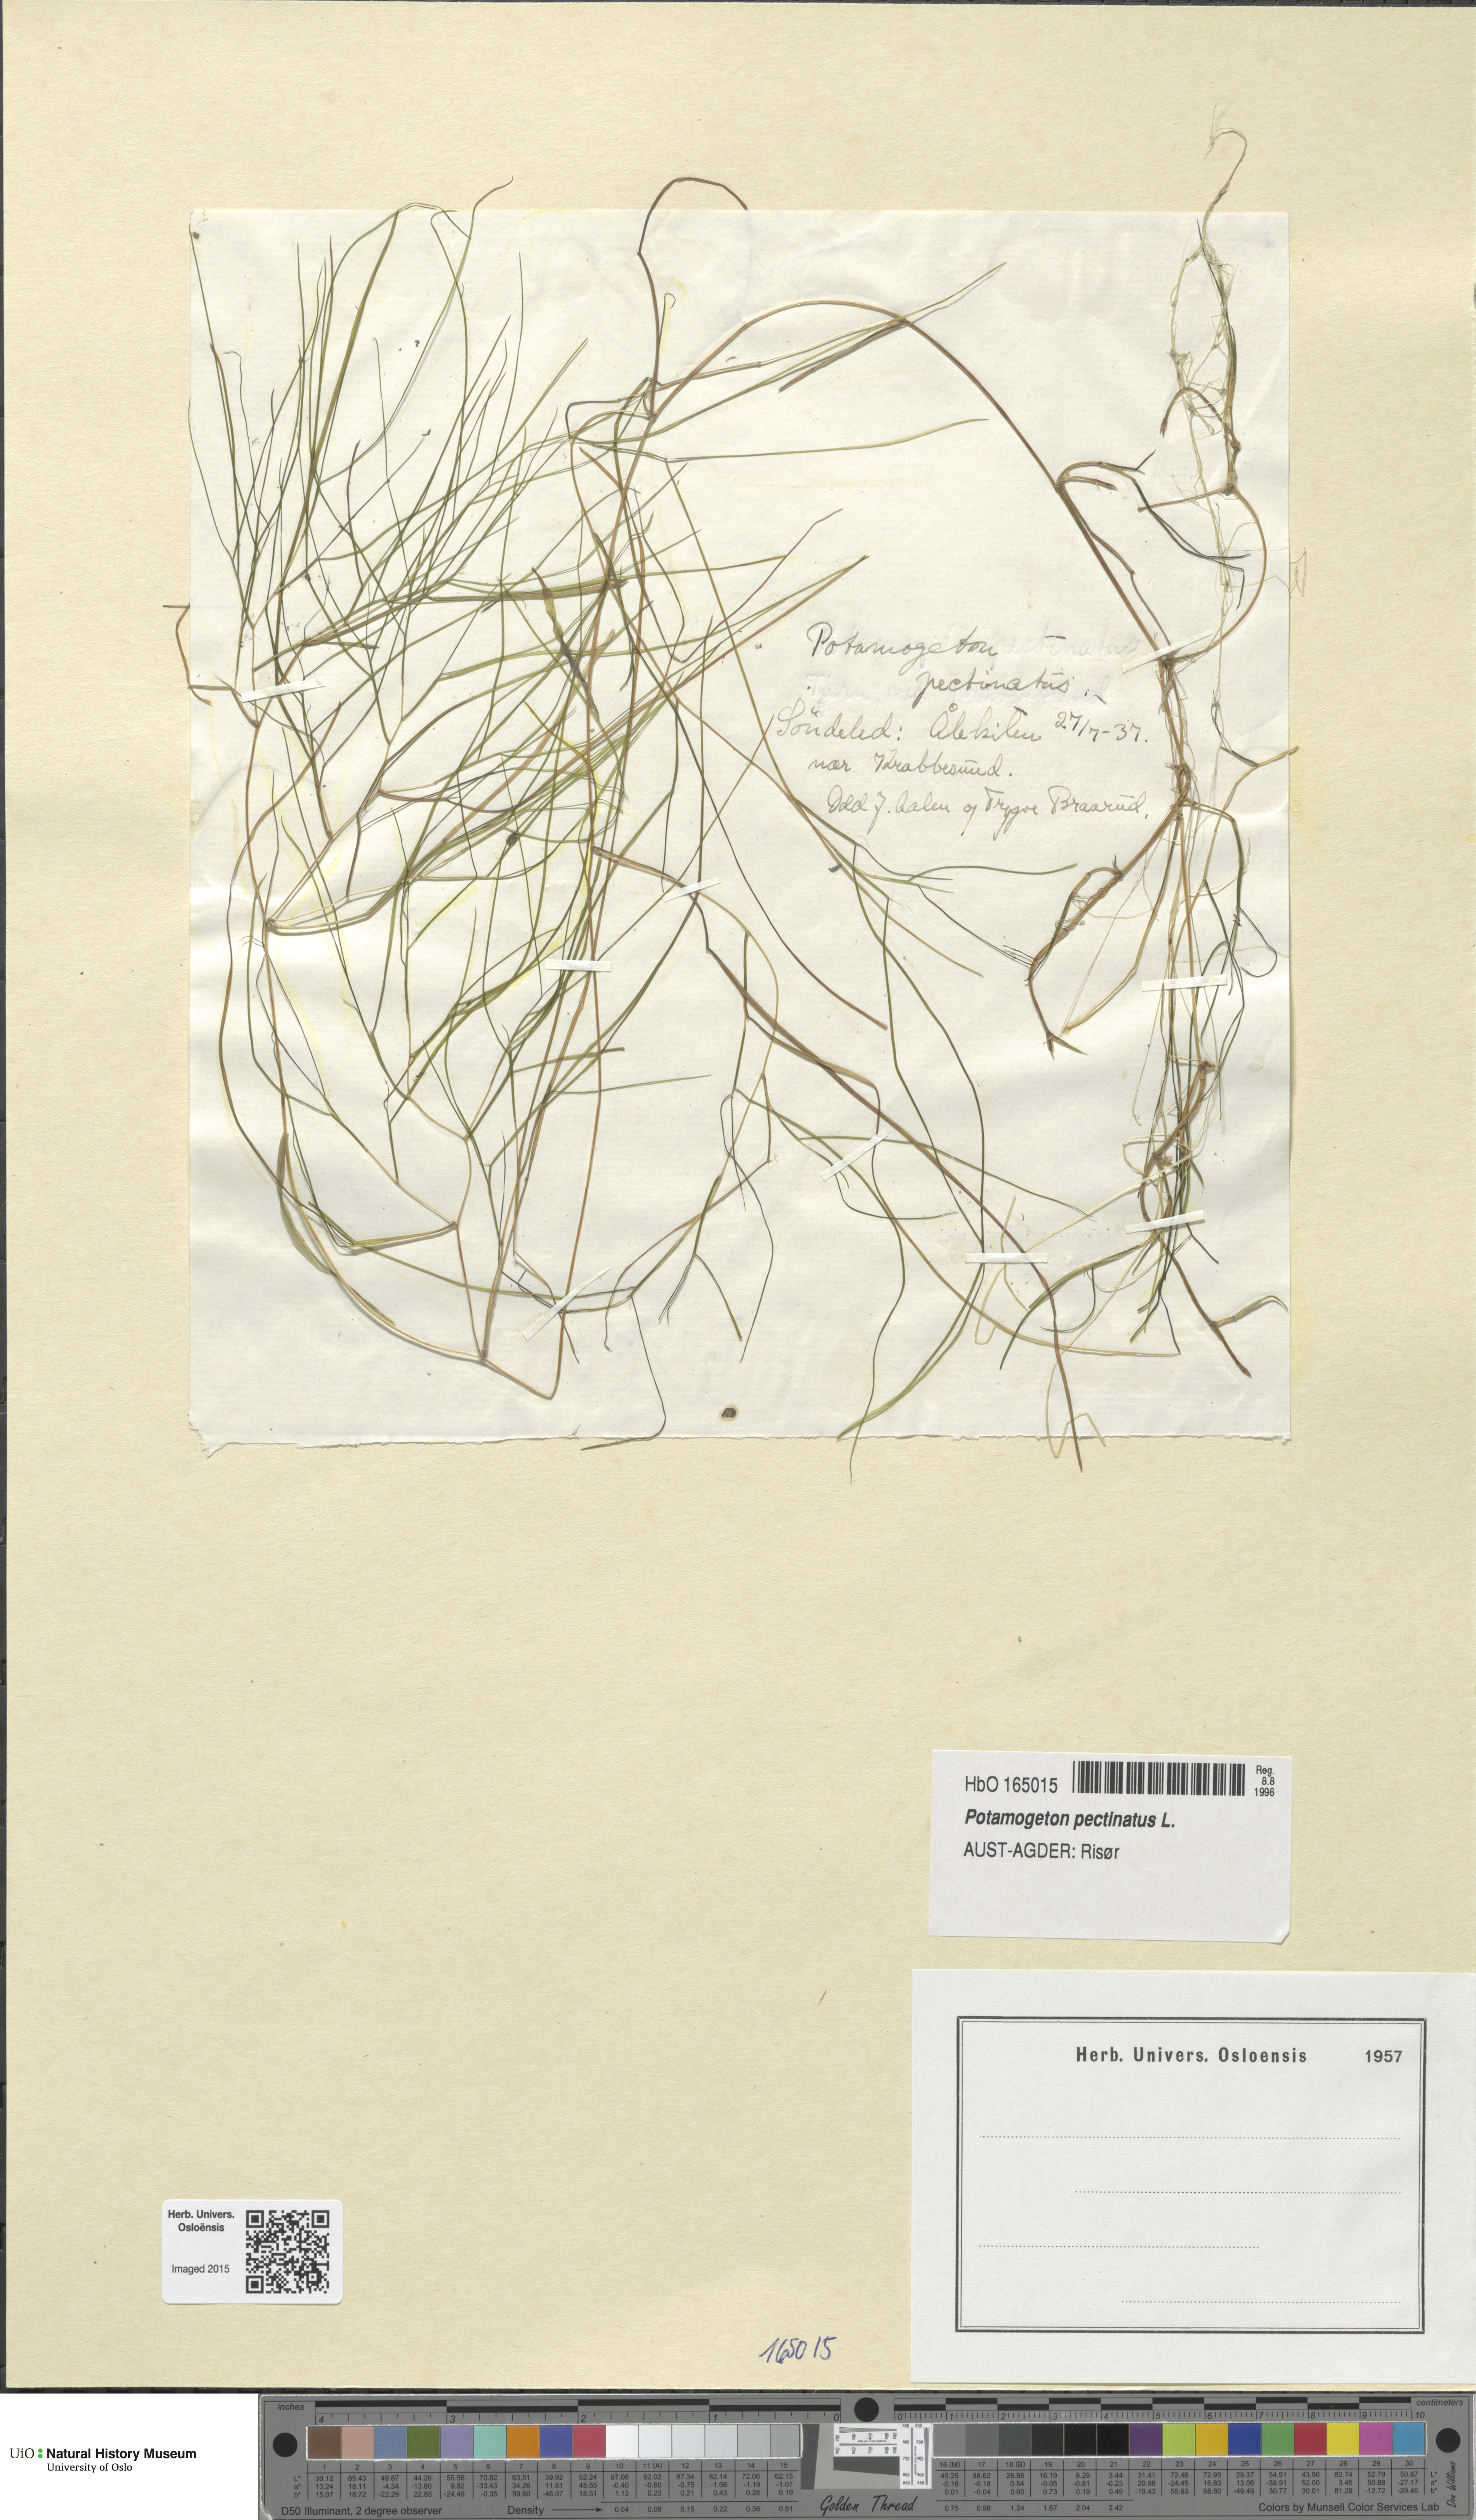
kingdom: Plantae
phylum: Tracheophyta
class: Liliopsida
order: Alismatales
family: Potamogetonaceae
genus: Stuckenia
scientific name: Stuckenia pectinata
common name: Sago pondweed
